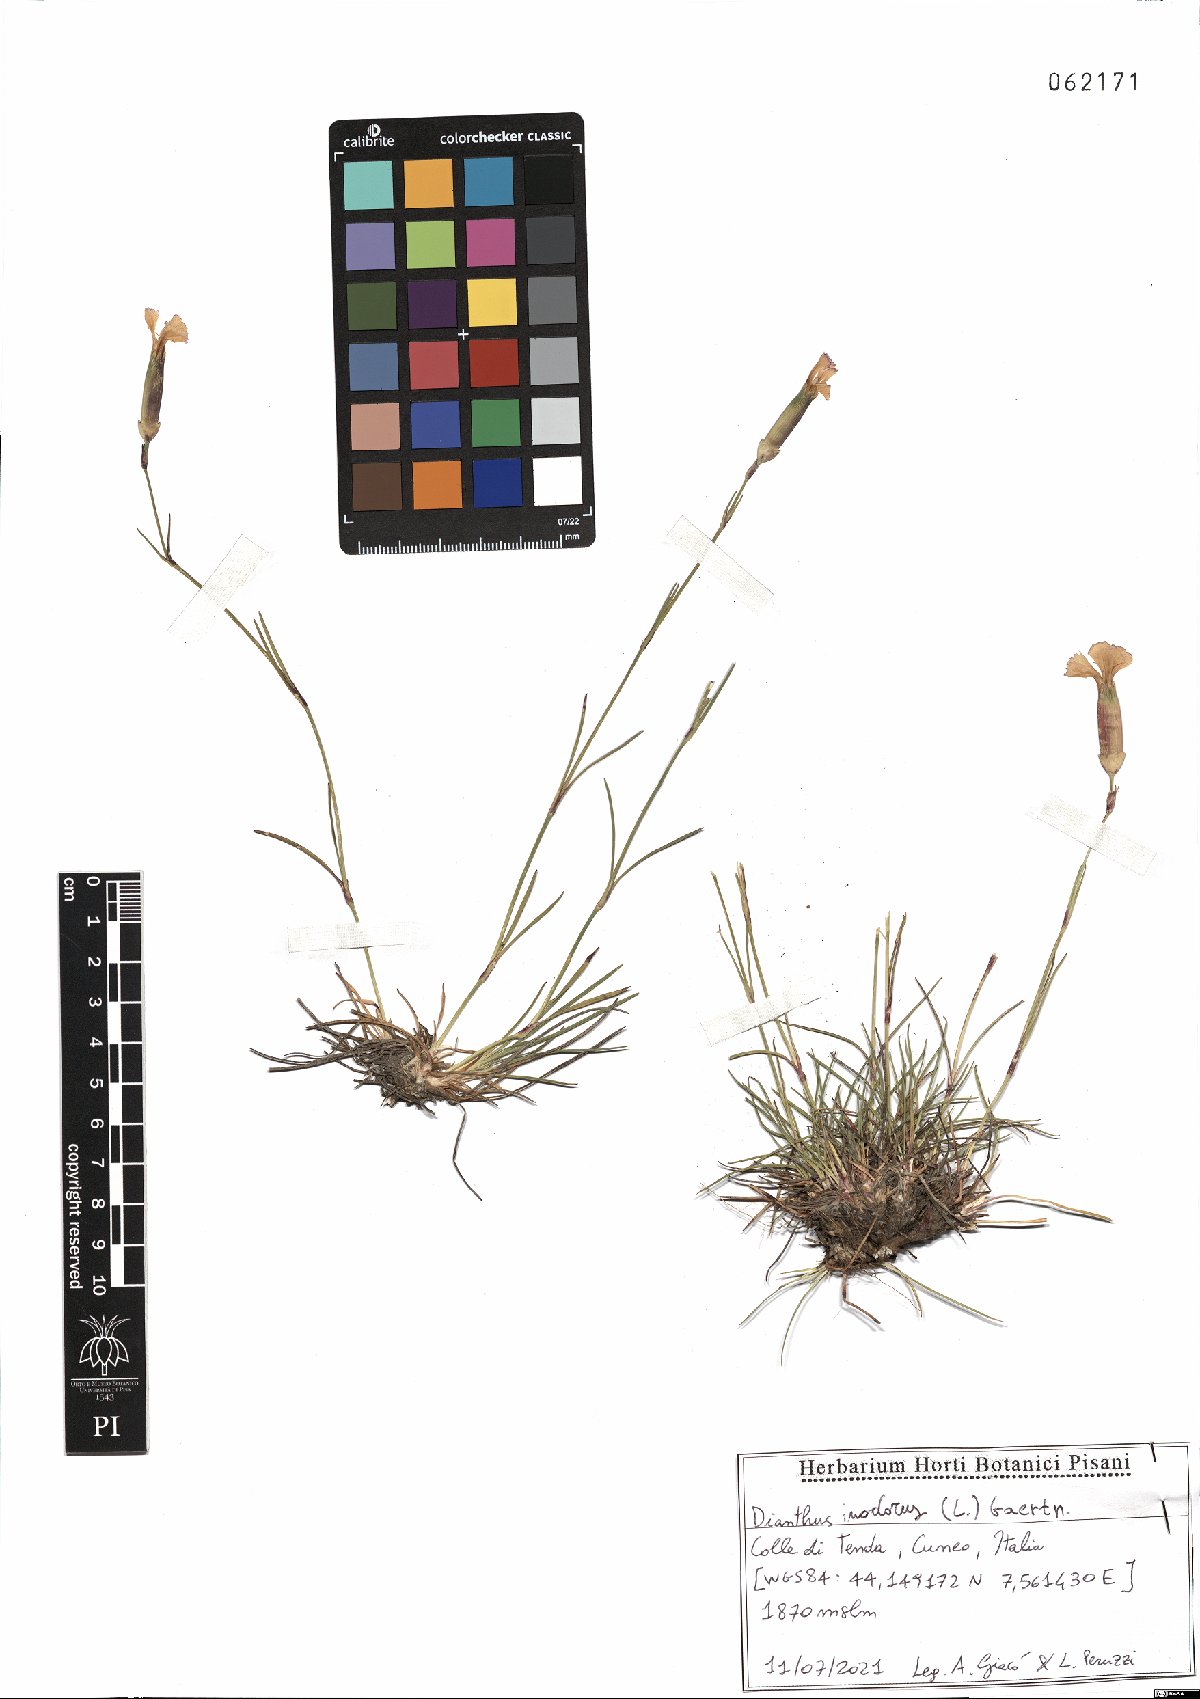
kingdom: Plantae
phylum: Tracheophyta
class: Magnoliopsida
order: Caryophyllales
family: Caryophyllaceae
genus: Dianthus
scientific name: Dianthus sylvestris
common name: Wood pink
